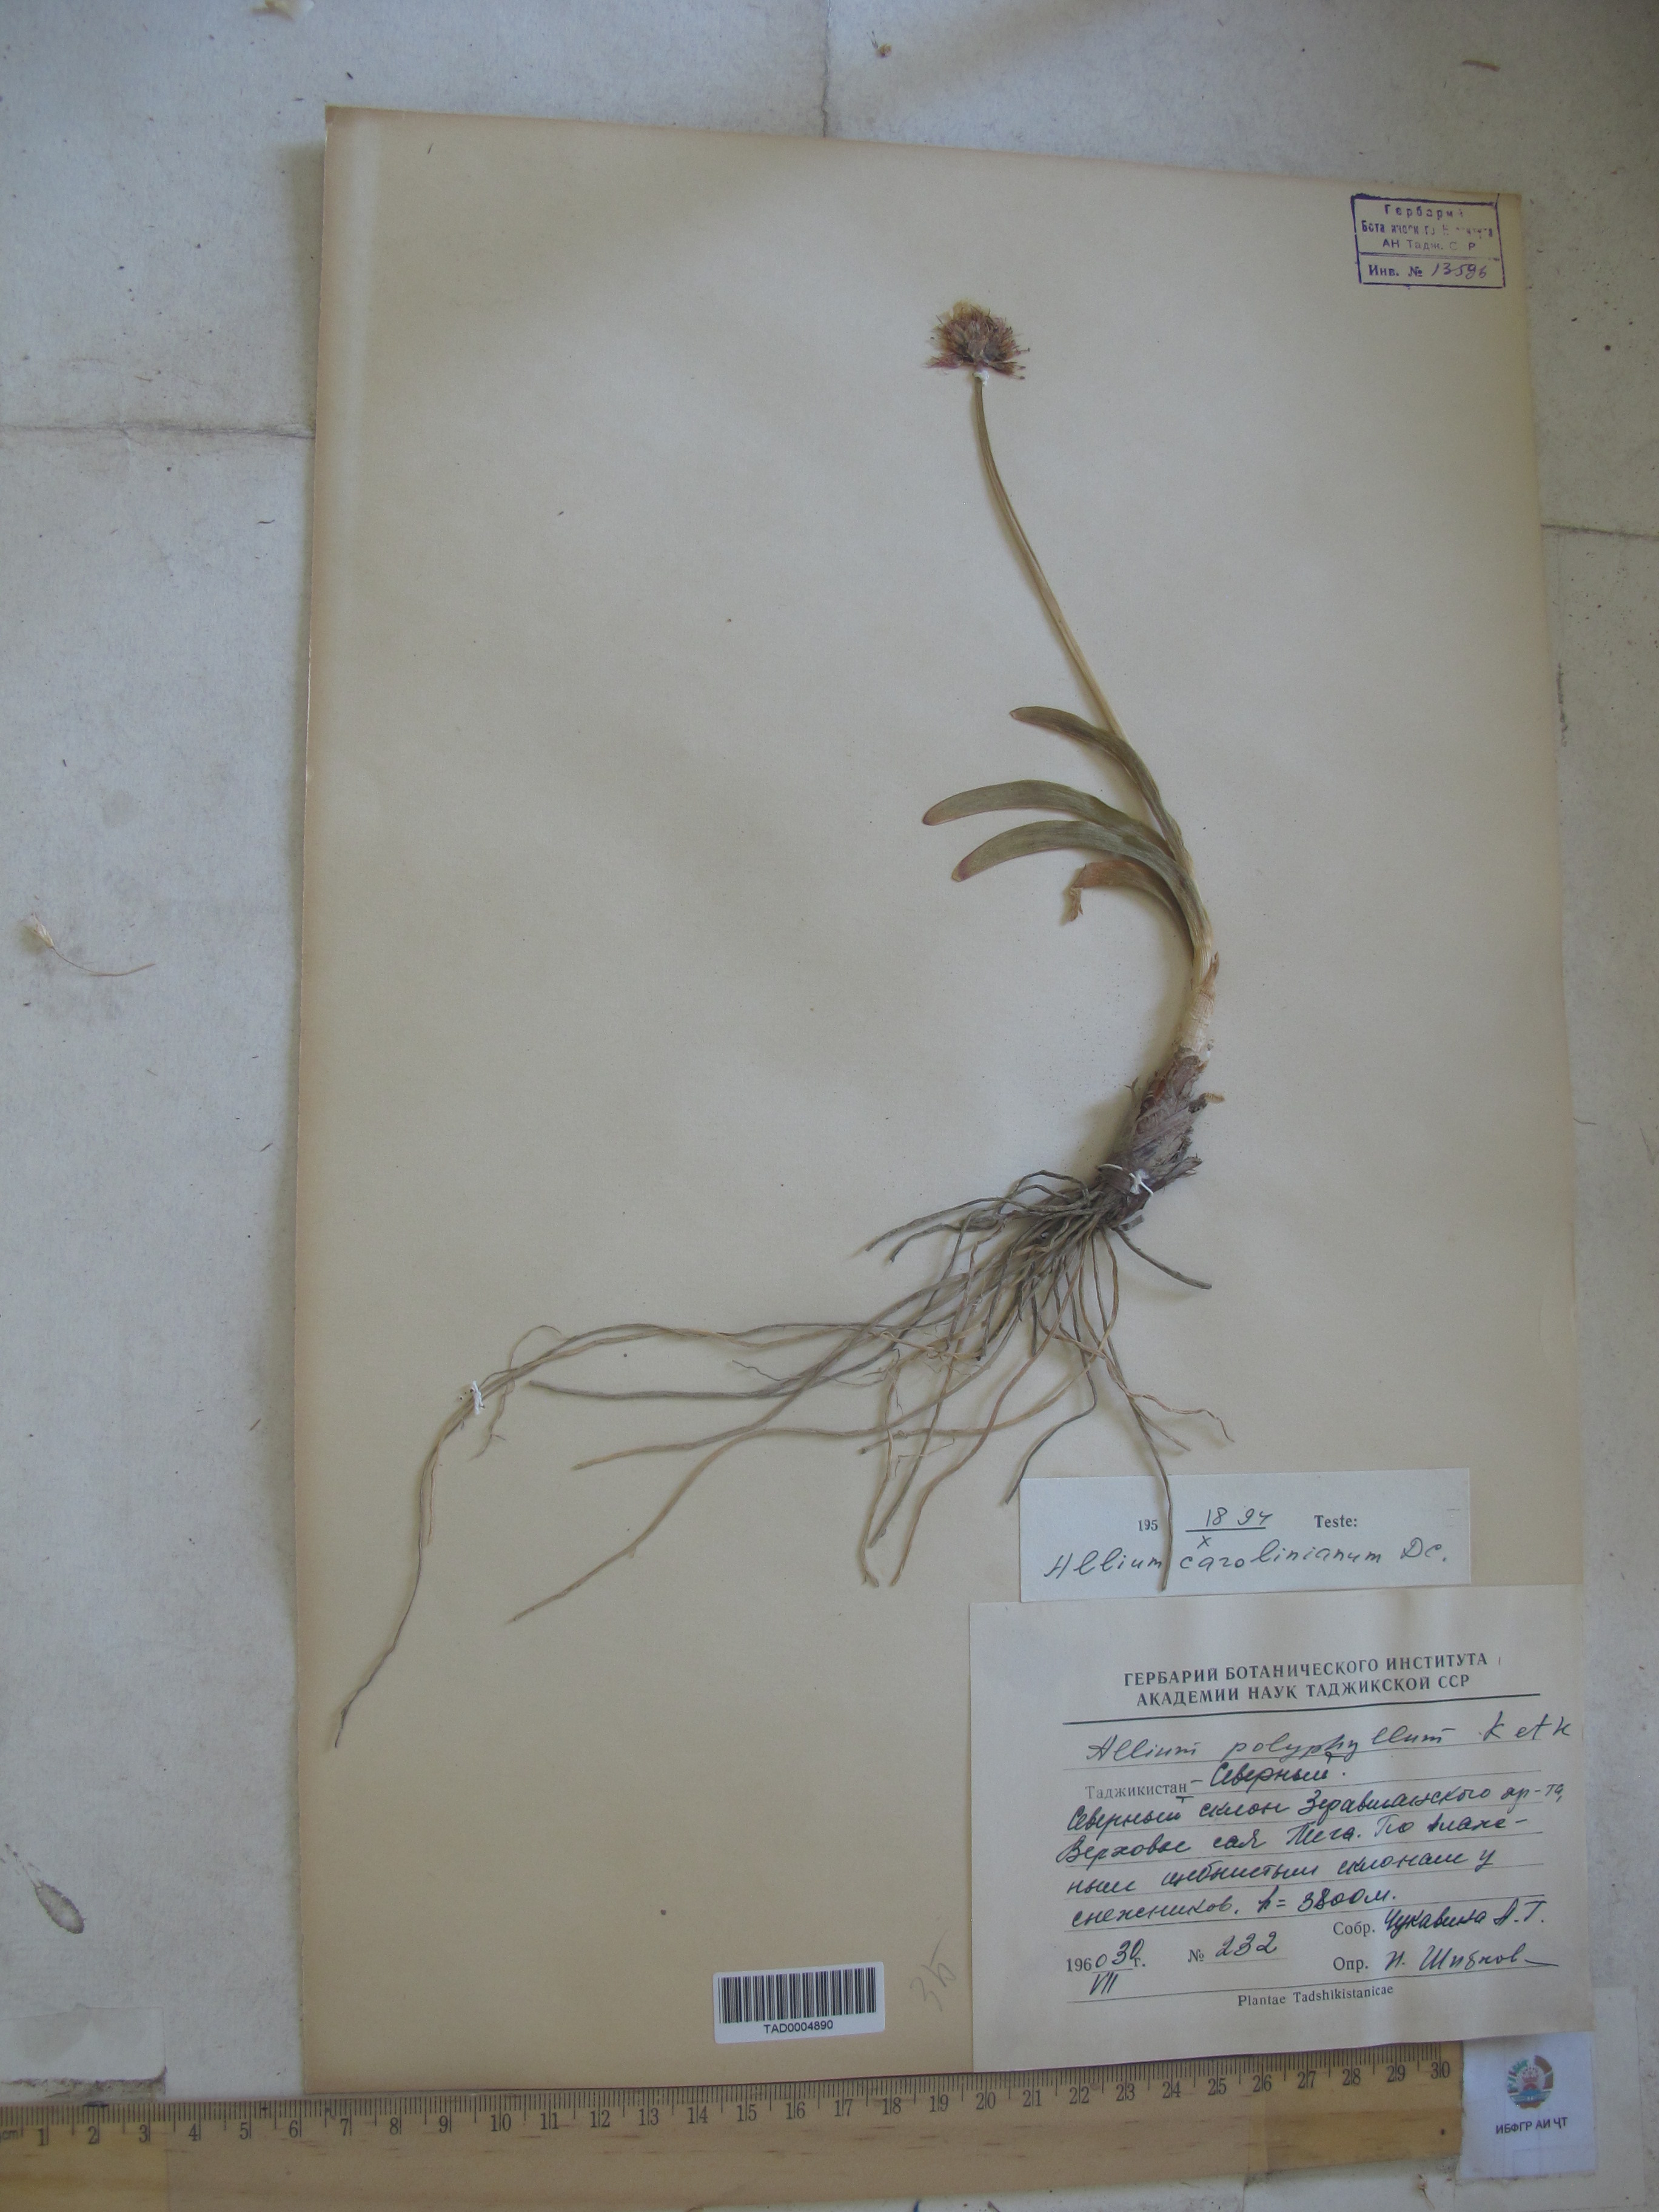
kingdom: Plantae
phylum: Tracheophyta
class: Liliopsida
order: Asparagales
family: Amaryllidaceae
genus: Allium
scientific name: Allium carolinianum
